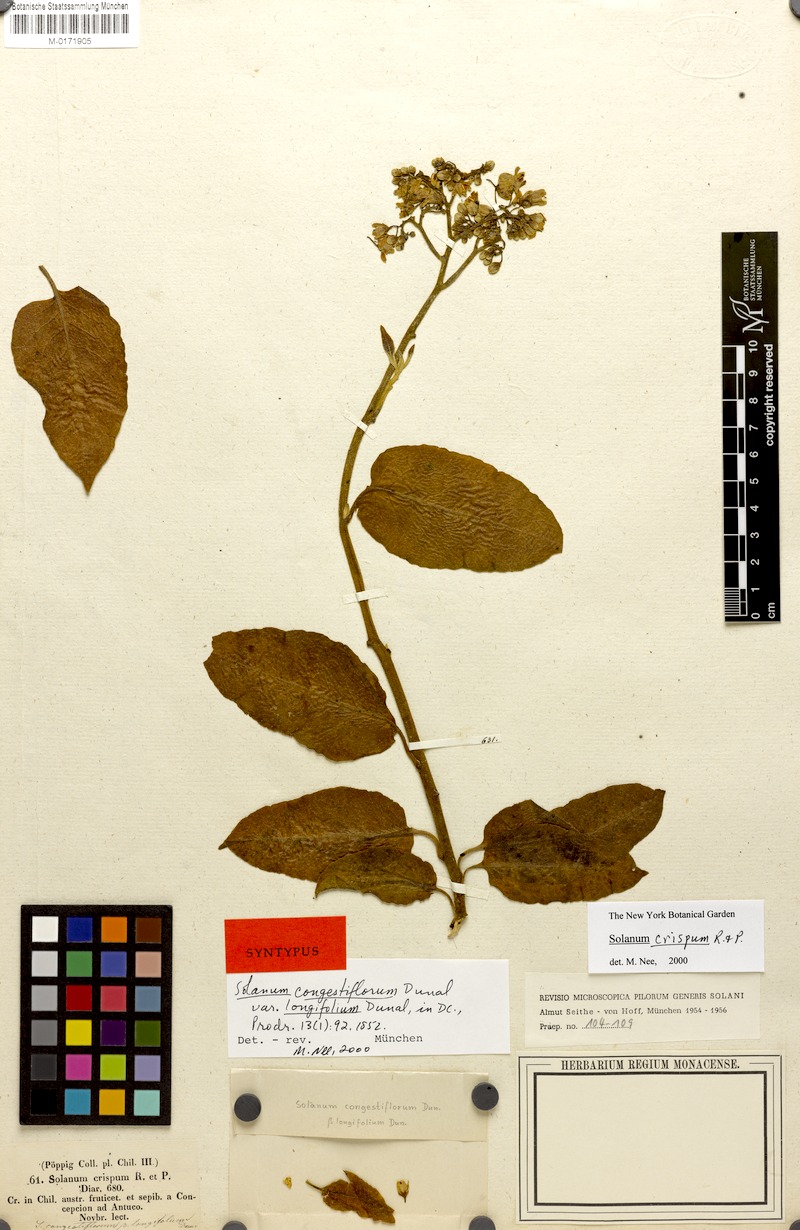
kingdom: Plantae
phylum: Tracheophyta
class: Magnoliopsida
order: Solanales
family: Solanaceae
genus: Solanum
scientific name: Solanum crispum
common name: Chilean nightshade
